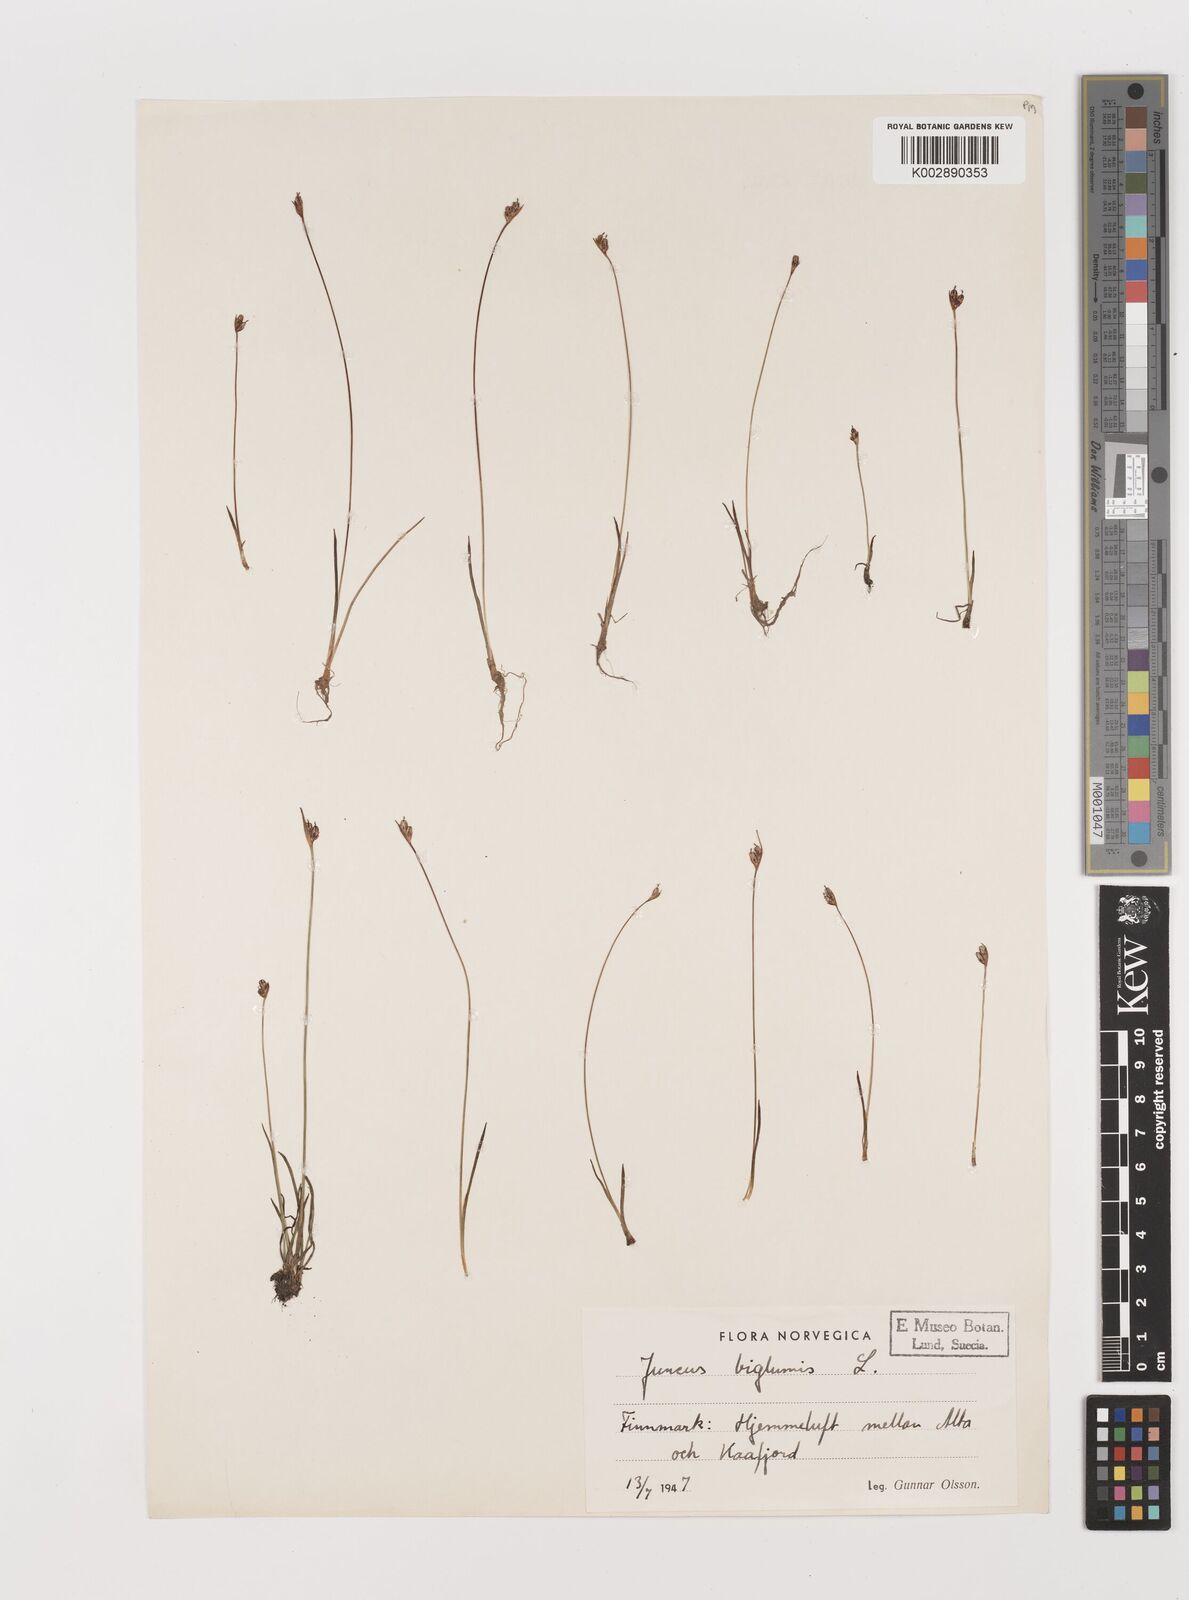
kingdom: Plantae
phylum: Tracheophyta
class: Liliopsida
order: Poales
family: Juncaceae
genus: Juncus
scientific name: Juncus biglumis
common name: Two-flowered rush
